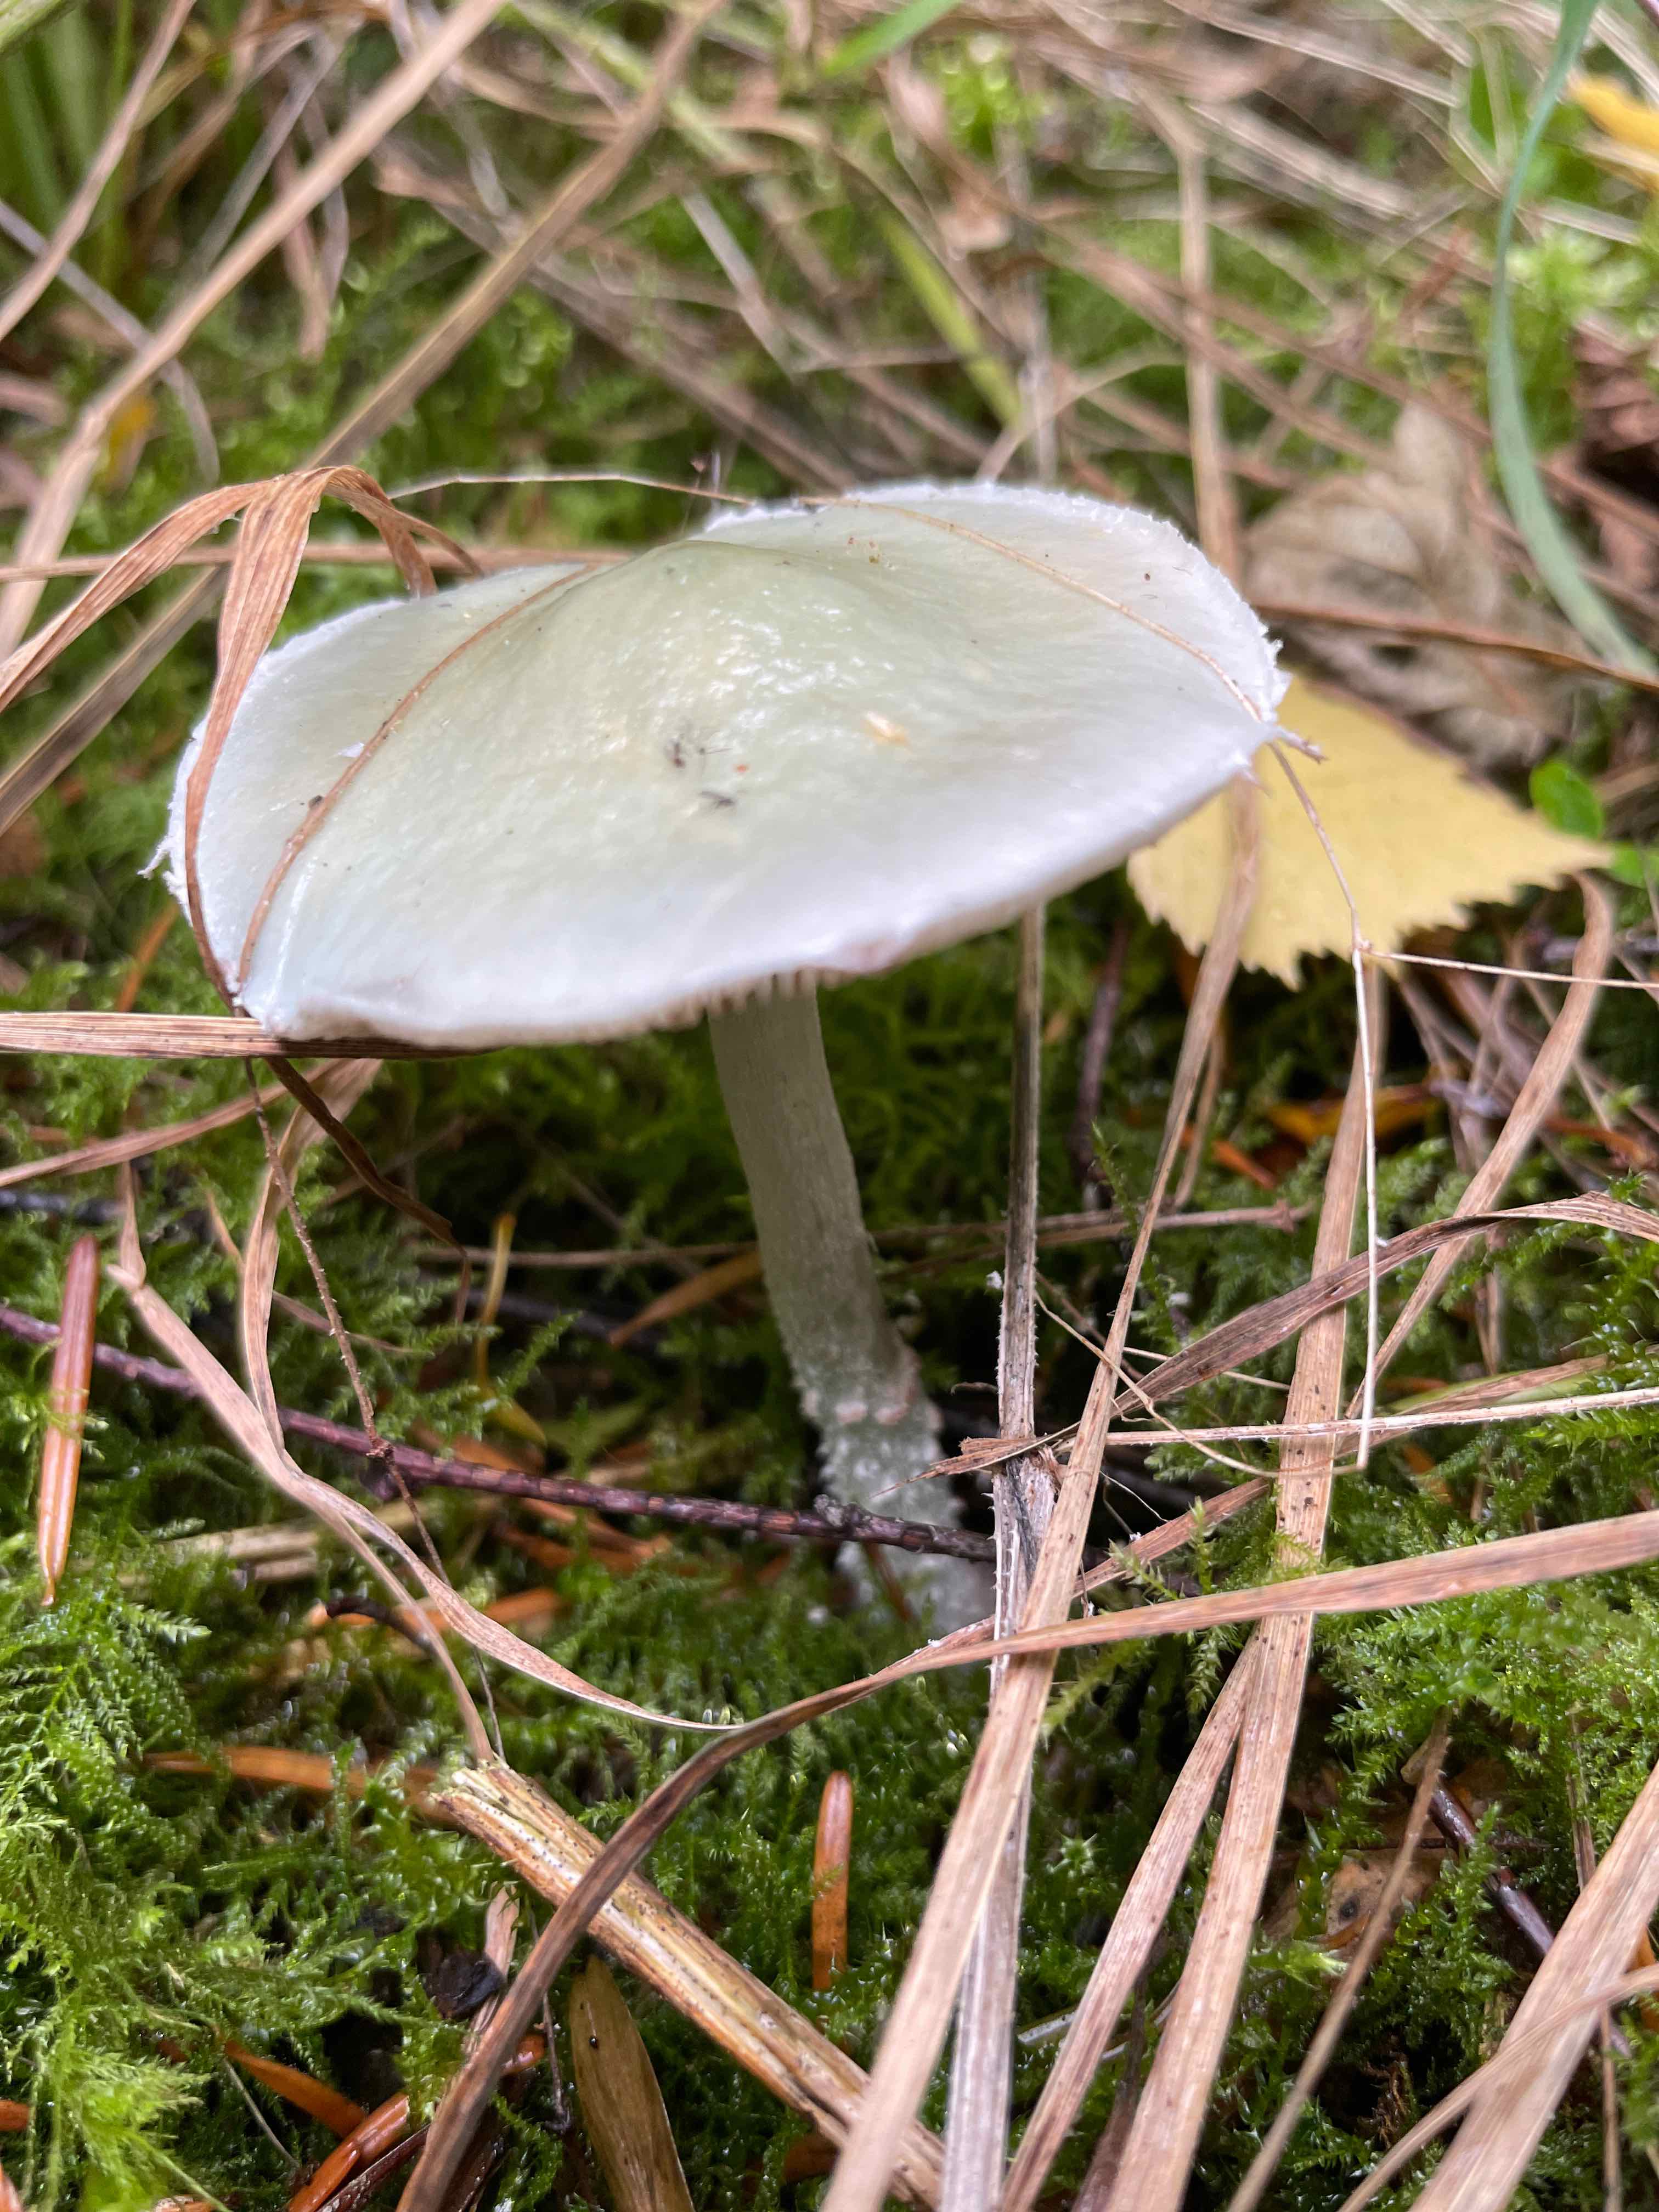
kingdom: Fungi
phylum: Basidiomycota
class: Agaricomycetes
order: Agaricales
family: Strophariaceae
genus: Stropharia
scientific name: Stropharia
